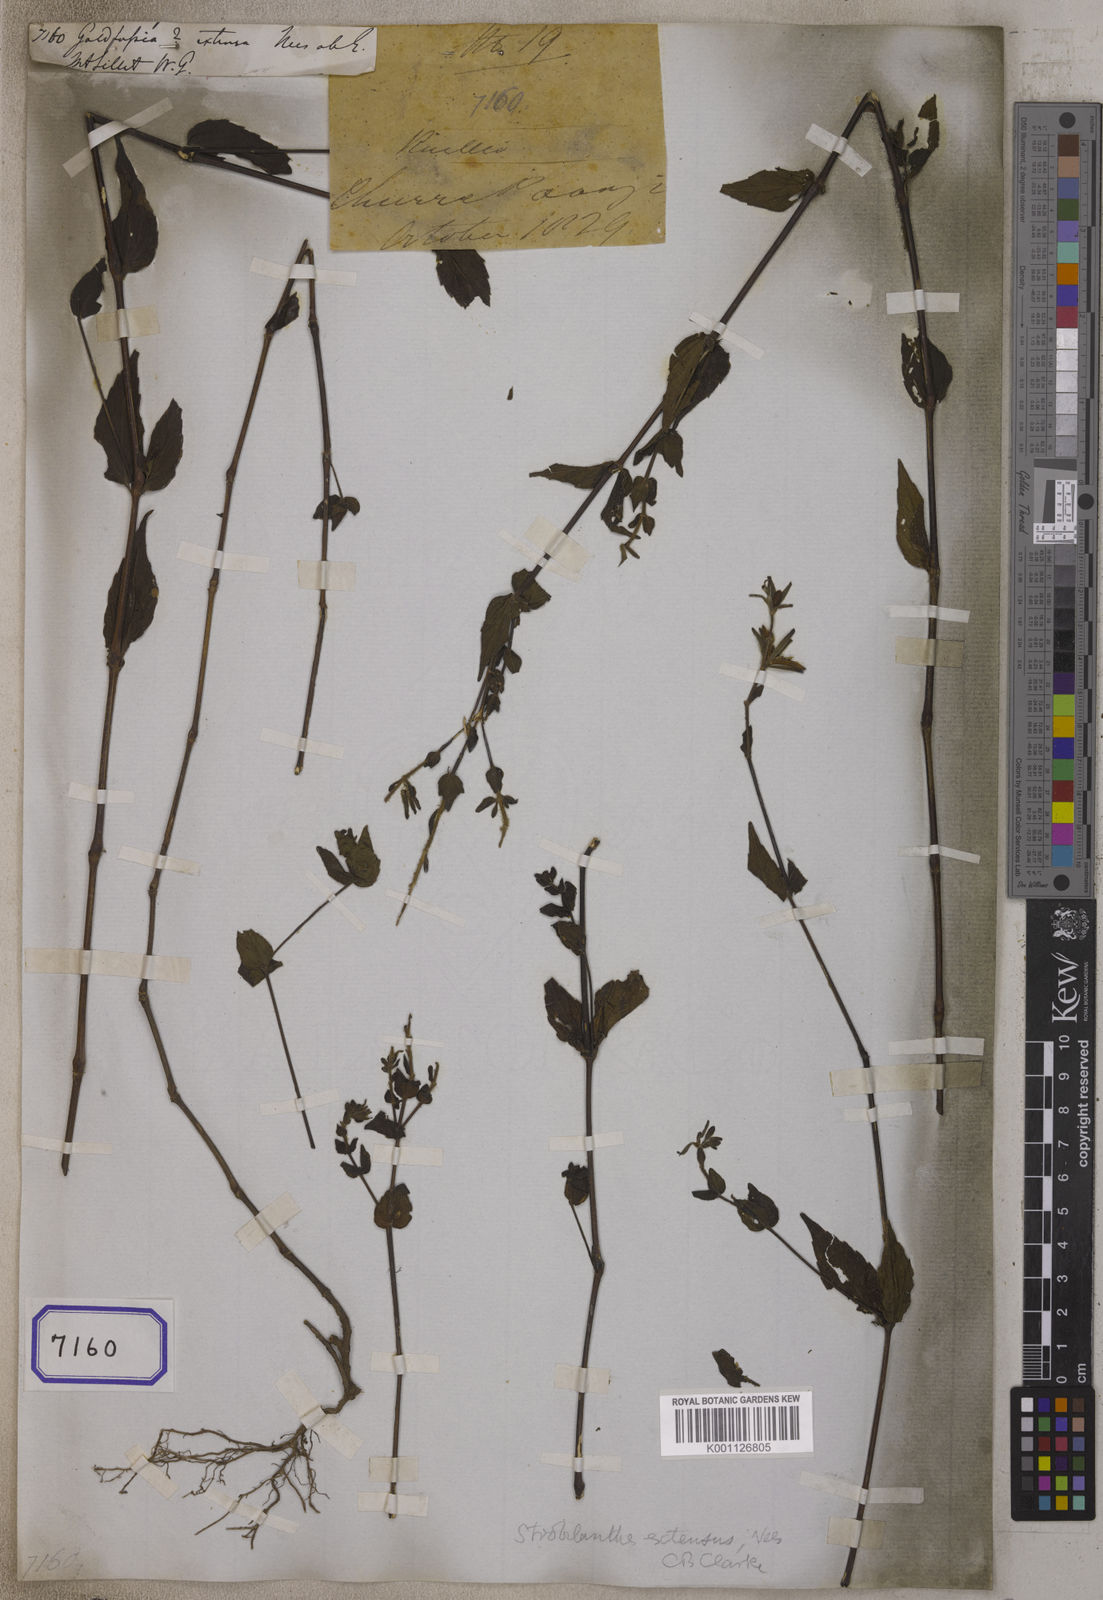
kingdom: Plantae
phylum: Tracheophyta
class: Magnoliopsida
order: Lamiales
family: Acanthaceae
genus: Strobilanthes
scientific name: Strobilanthes extensa
